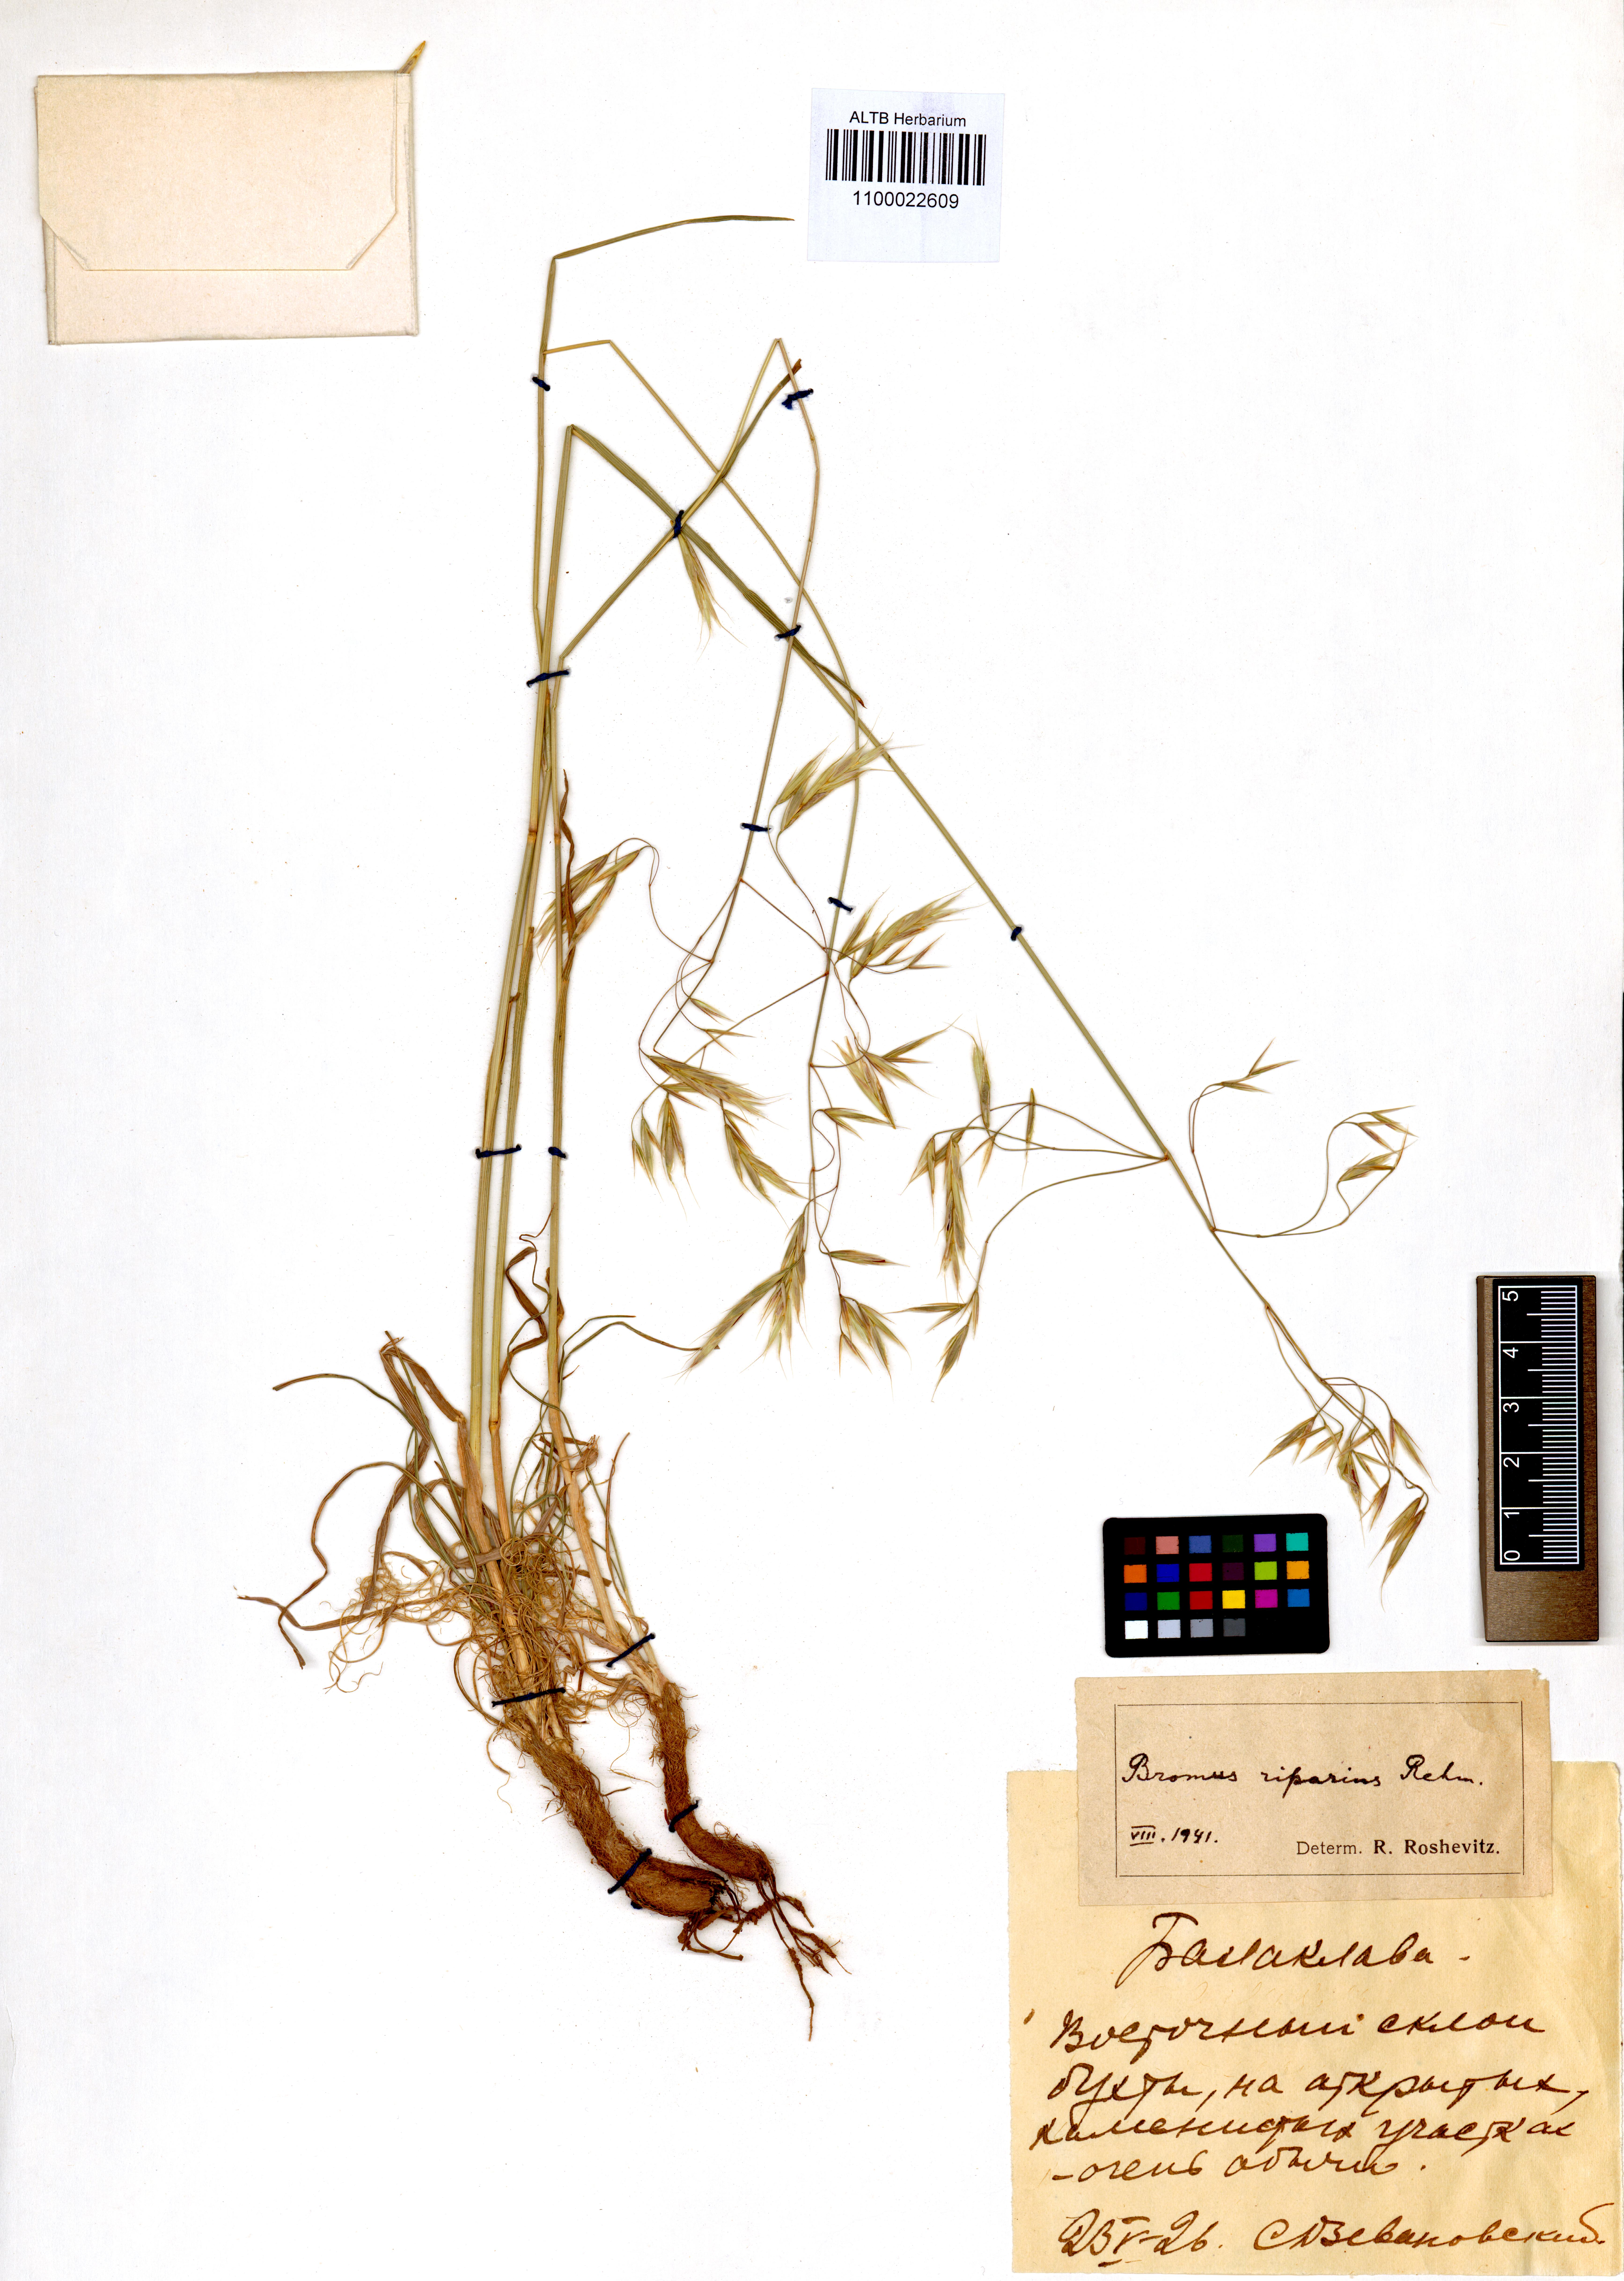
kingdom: Plantae
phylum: Tracheophyta
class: Liliopsida
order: Poales
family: Poaceae
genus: Bromus
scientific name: Bromus riparius
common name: Meadow brome
